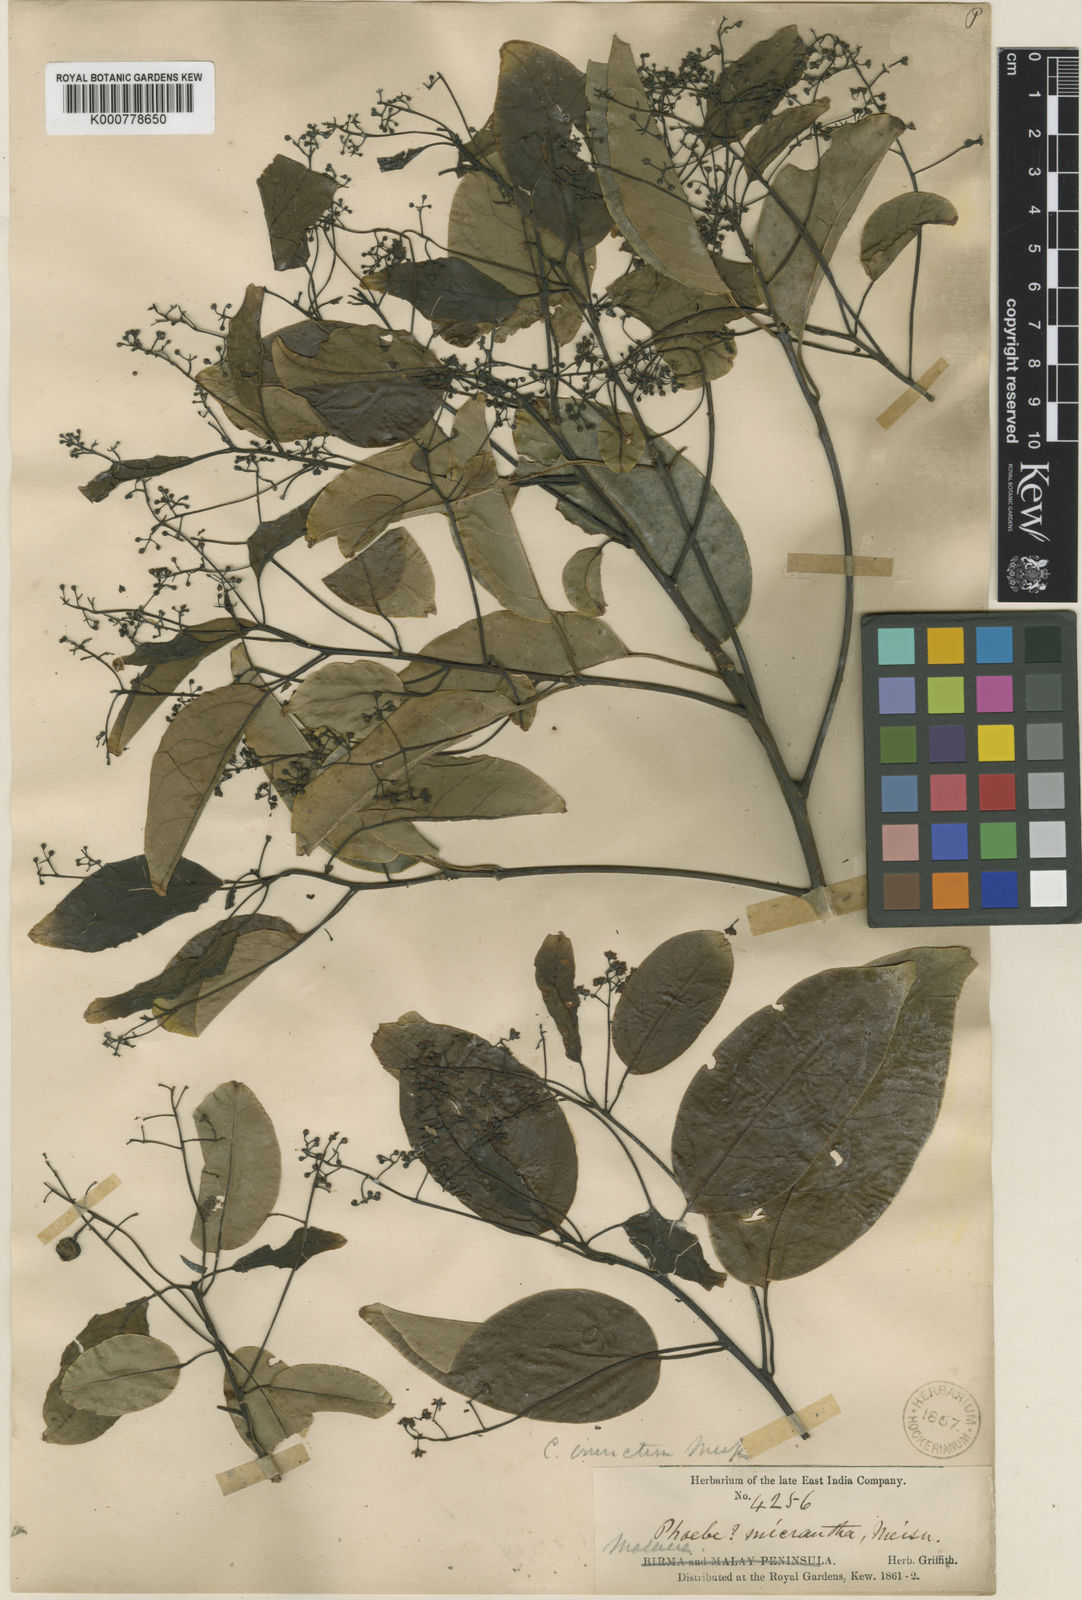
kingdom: Plantae
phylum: Tracheophyta
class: Magnoliopsida
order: Laurales
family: Lauraceae
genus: Cinnamomum
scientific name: Cinnamomum
